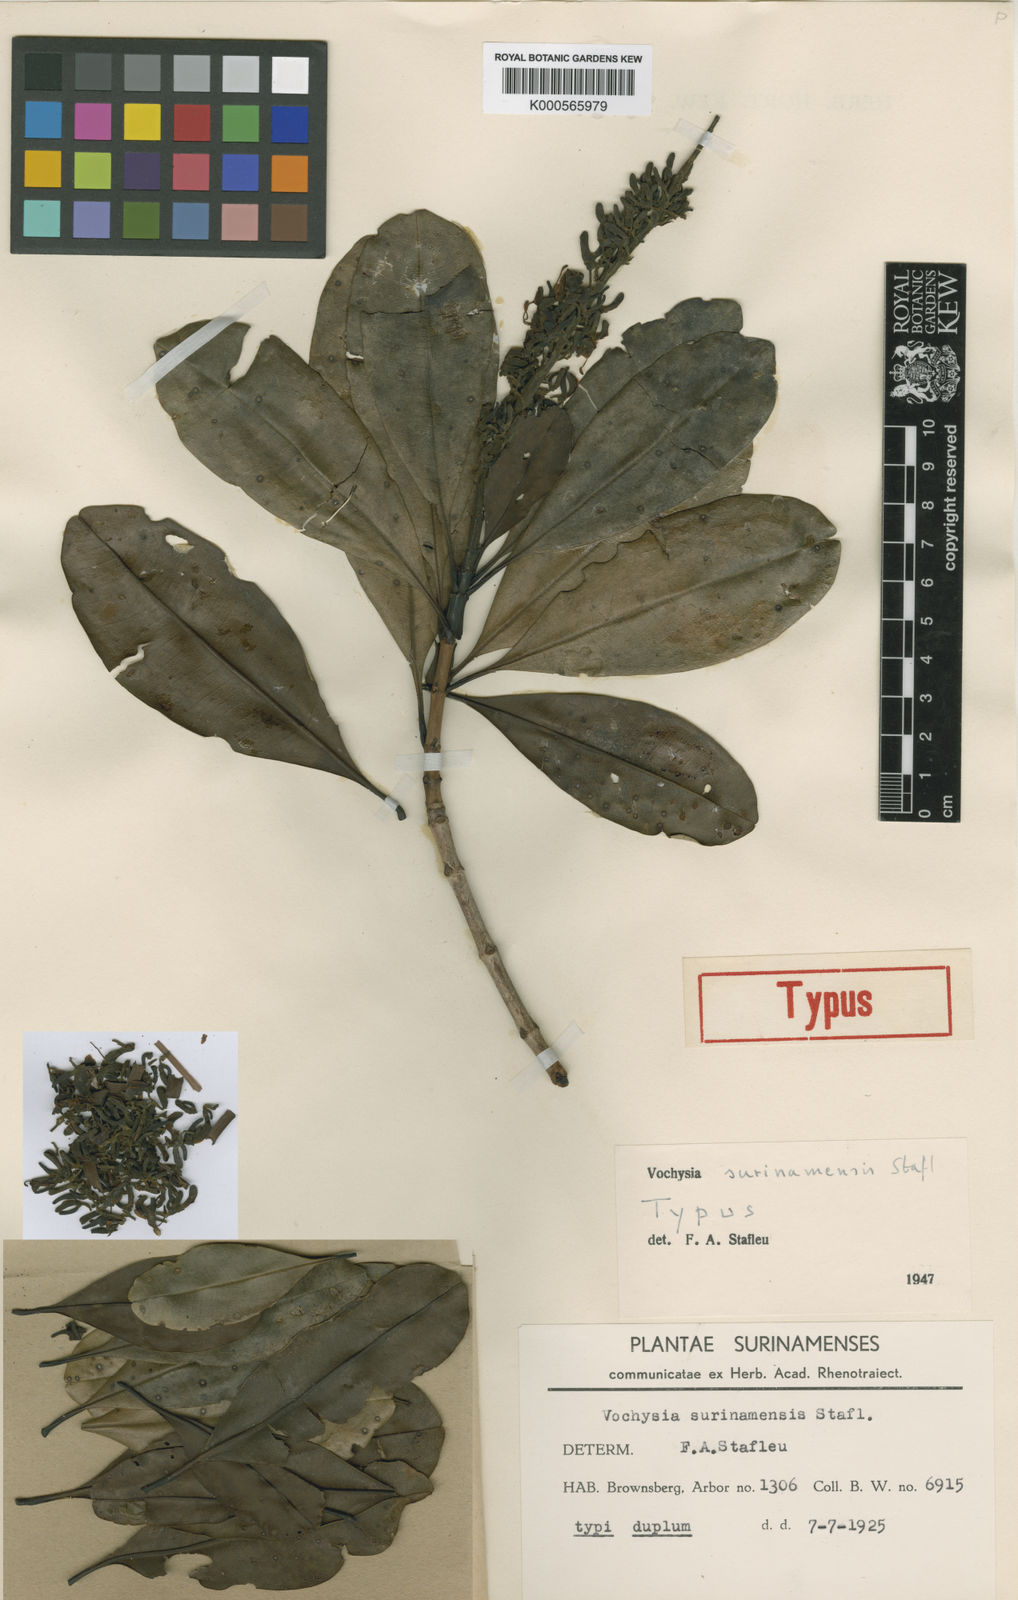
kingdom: Plantae
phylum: Tracheophyta
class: Magnoliopsida
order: Myrtales
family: Vochysiaceae
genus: Vochysia
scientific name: Vochysia surinamensis
